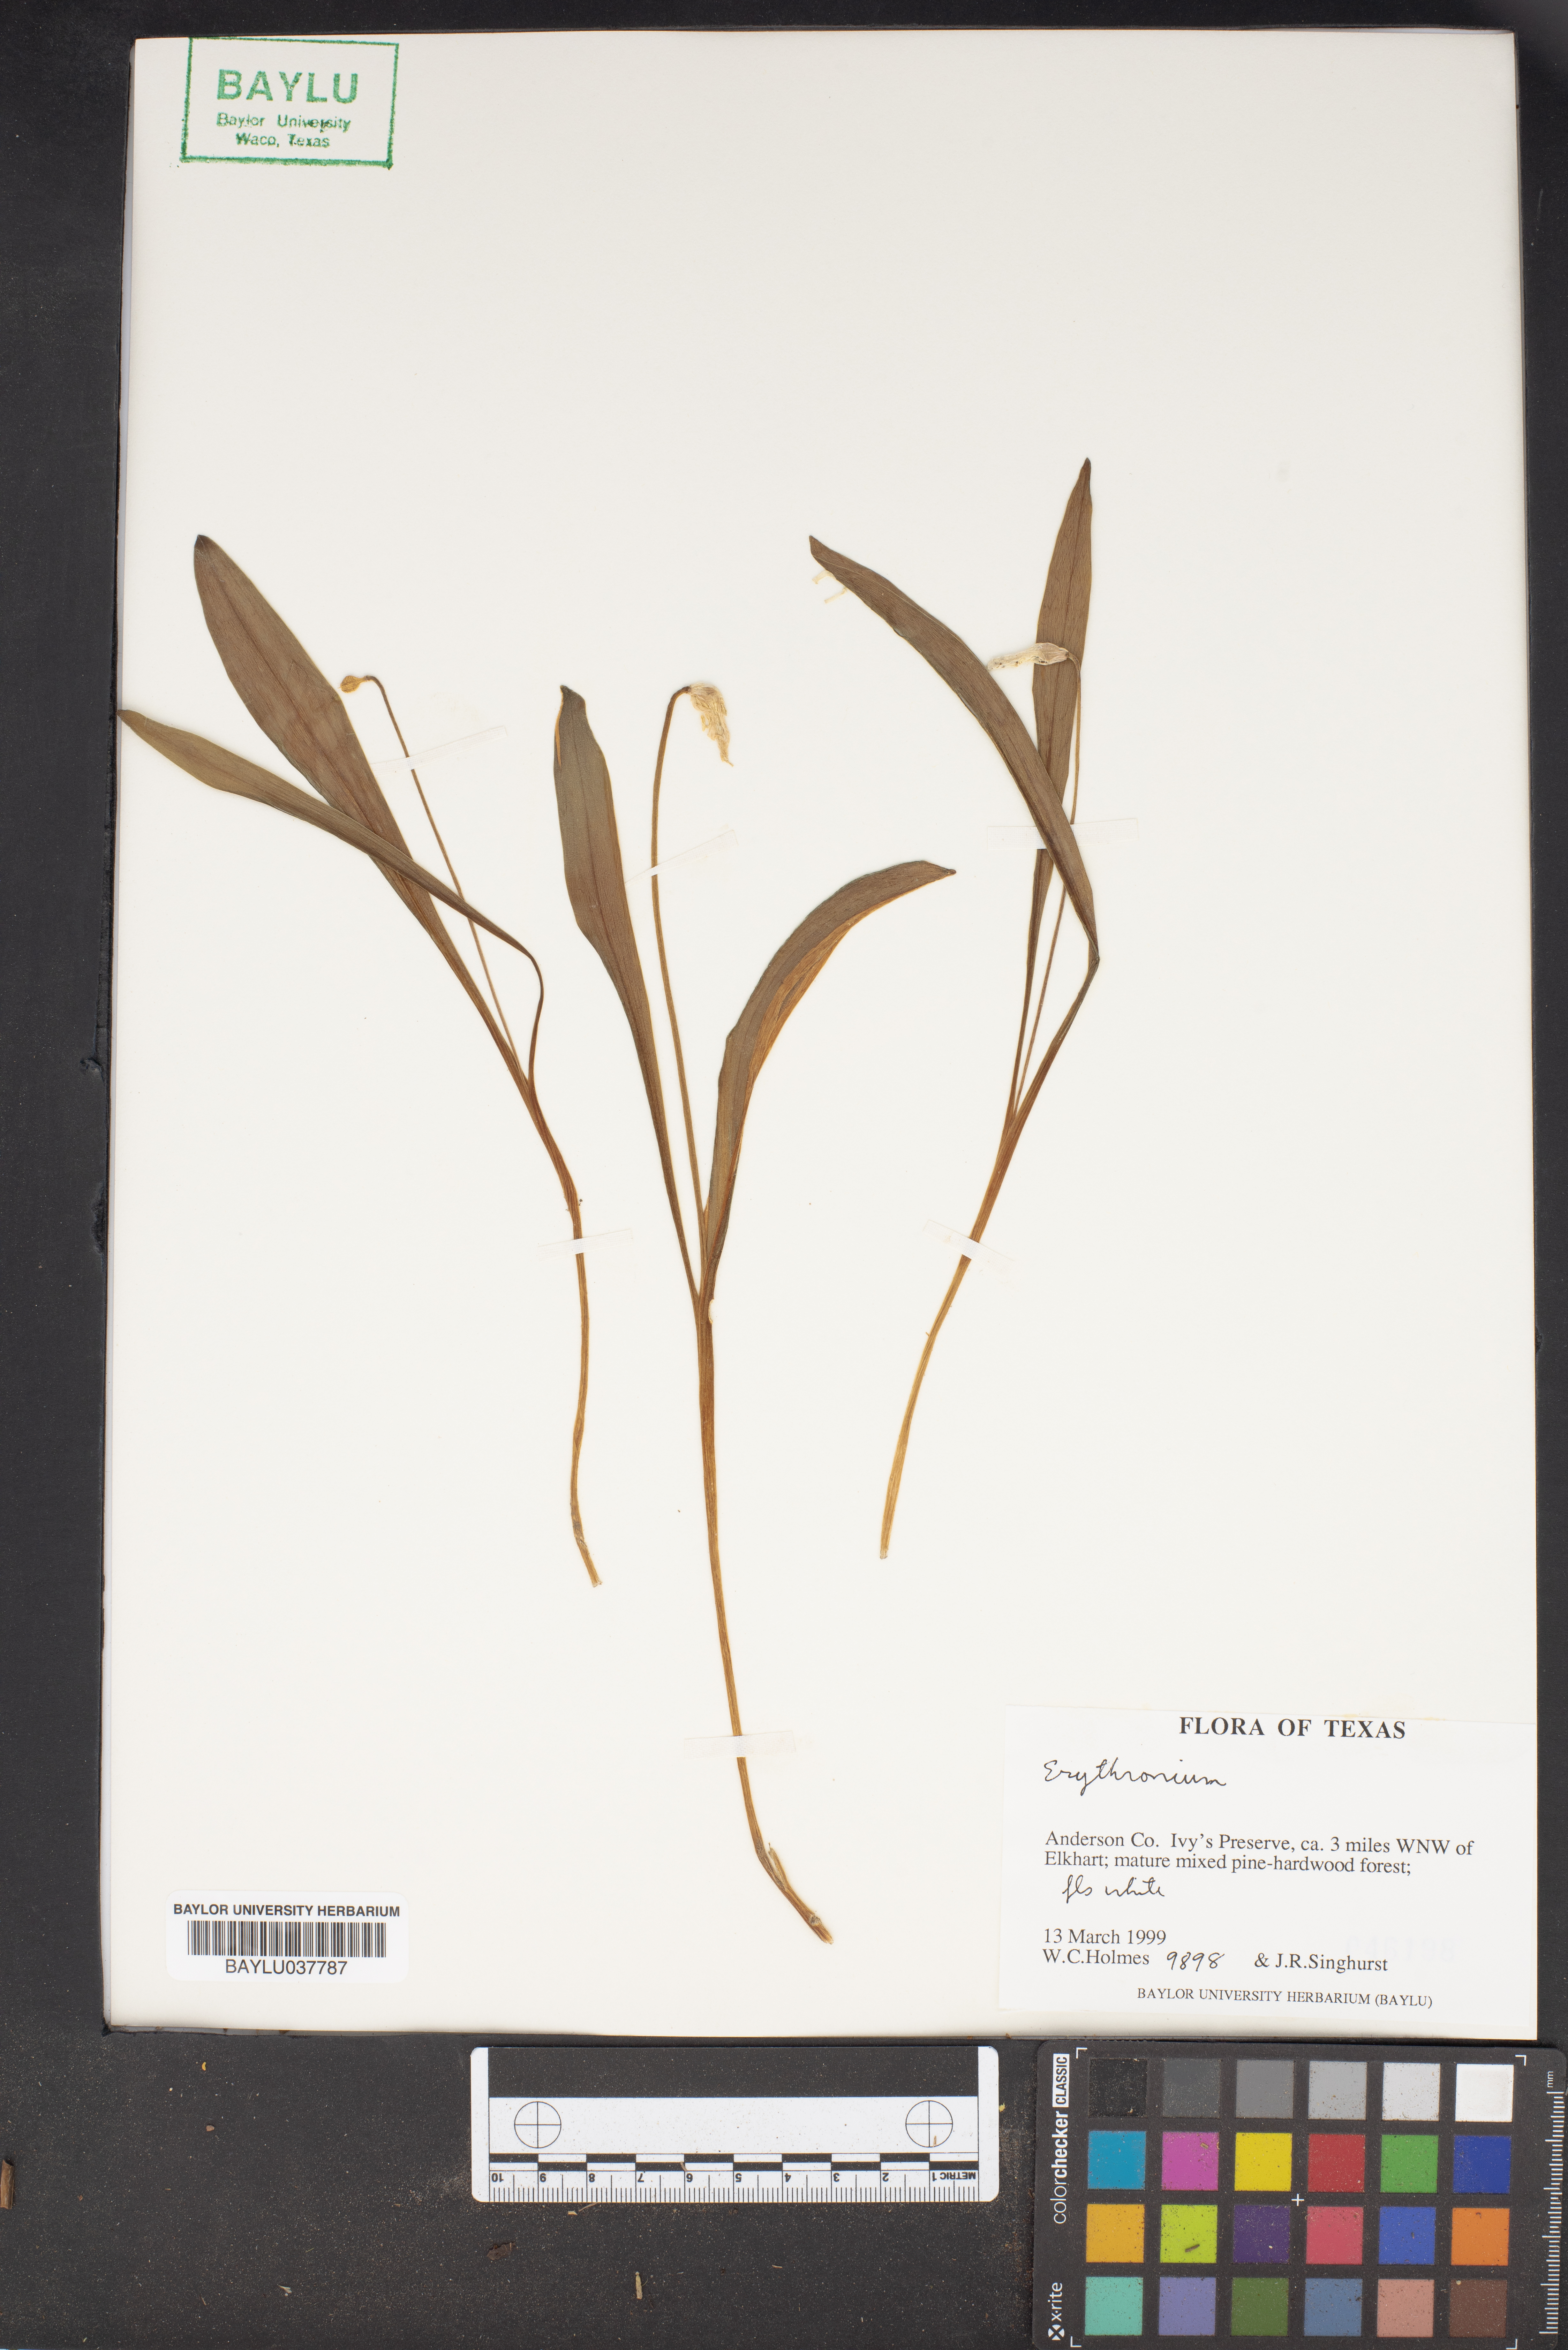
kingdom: Plantae
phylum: Tracheophyta
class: Liliopsida
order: Liliales
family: Liliaceae
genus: Erythronium
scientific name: Erythronium
